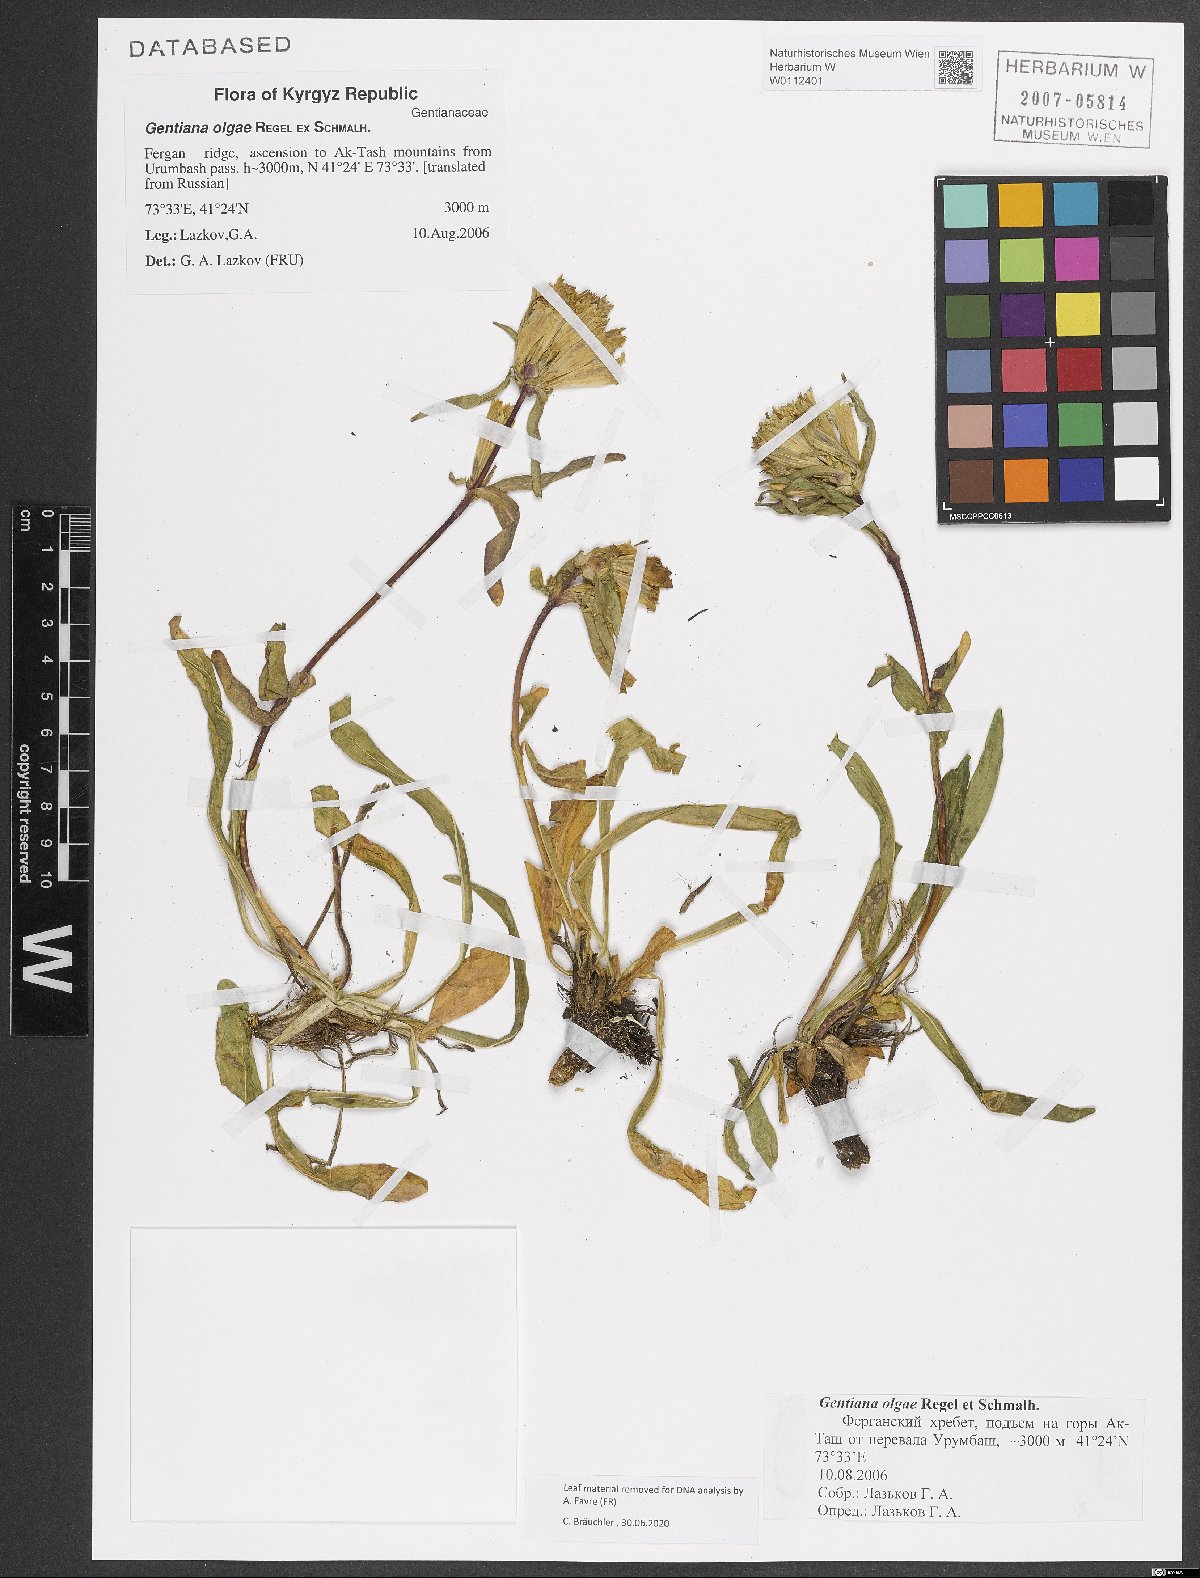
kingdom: Plantae
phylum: Tracheophyta
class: Magnoliopsida
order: Gentianales
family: Gentianaceae
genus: Gentiana
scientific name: Gentiana olgae
